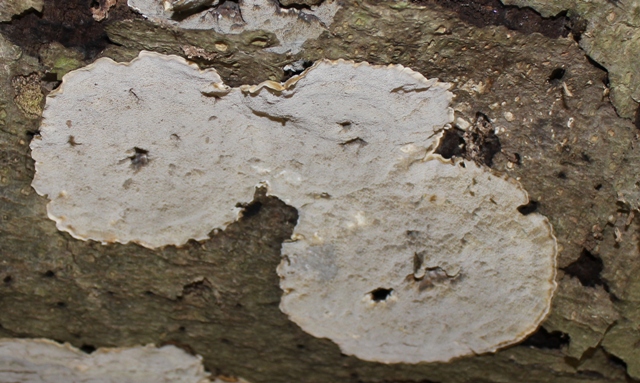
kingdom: Fungi
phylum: Basidiomycota
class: Agaricomycetes
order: Polyporales
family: Phanerochaetaceae
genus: Bjerkandera
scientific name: Bjerkandera adusta
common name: sveden sodporesvamp
